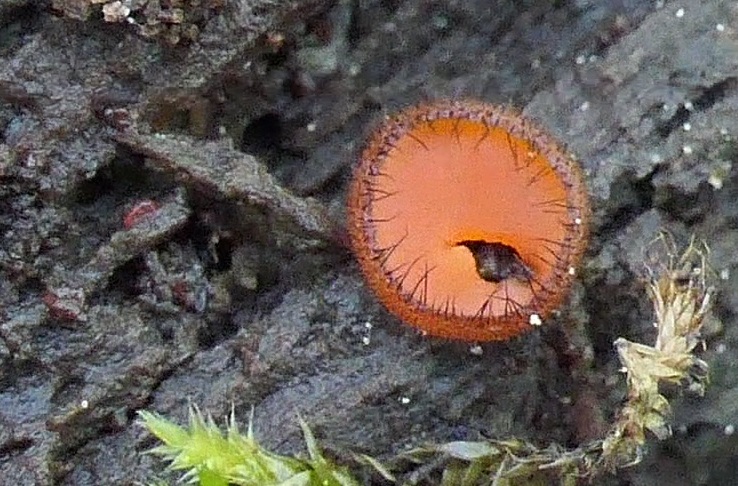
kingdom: Fungi
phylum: Ascomycota
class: Pezizomycetes
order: Pezizales
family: Pyronemataceae
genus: Scutellinia
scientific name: Scutellinia scutellata
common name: frynset skjoldbæger
